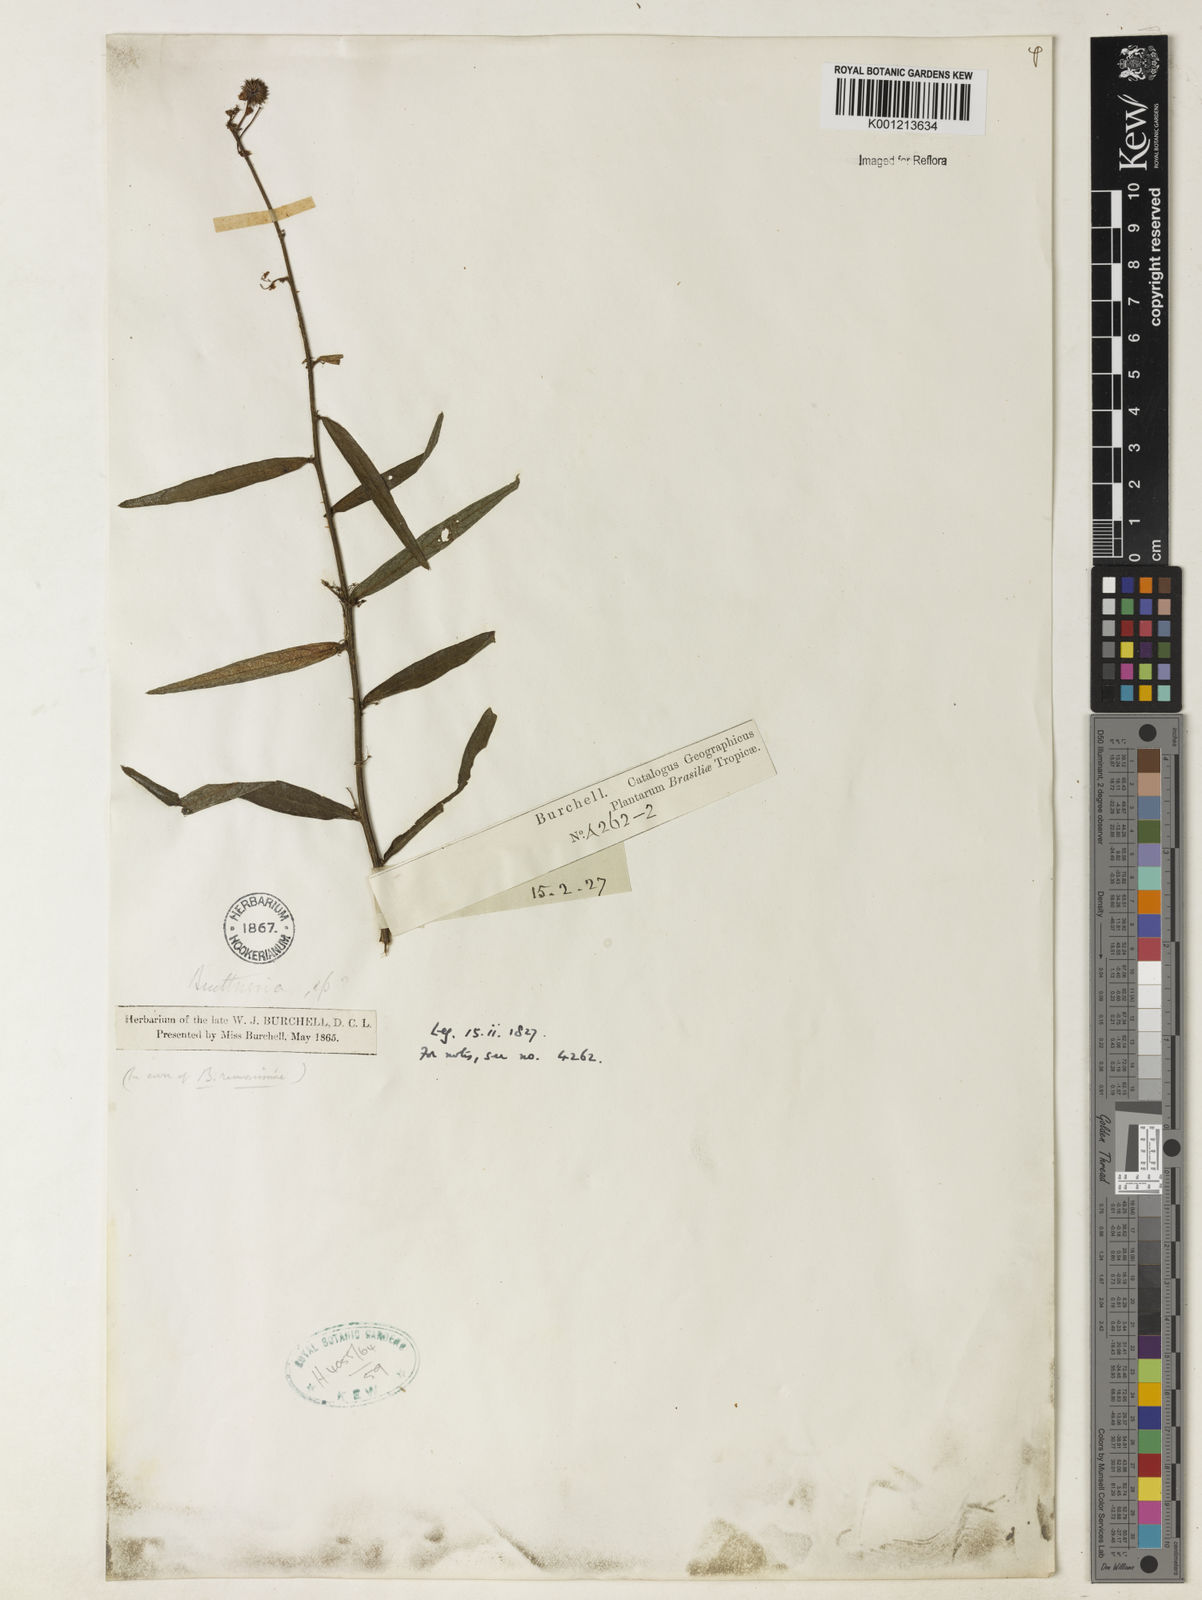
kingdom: Plantae
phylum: Tracheophyta
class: Magnoliopsida
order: Malvales
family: Malvaceae
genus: Byttneria
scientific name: Byttneria ramosissima
